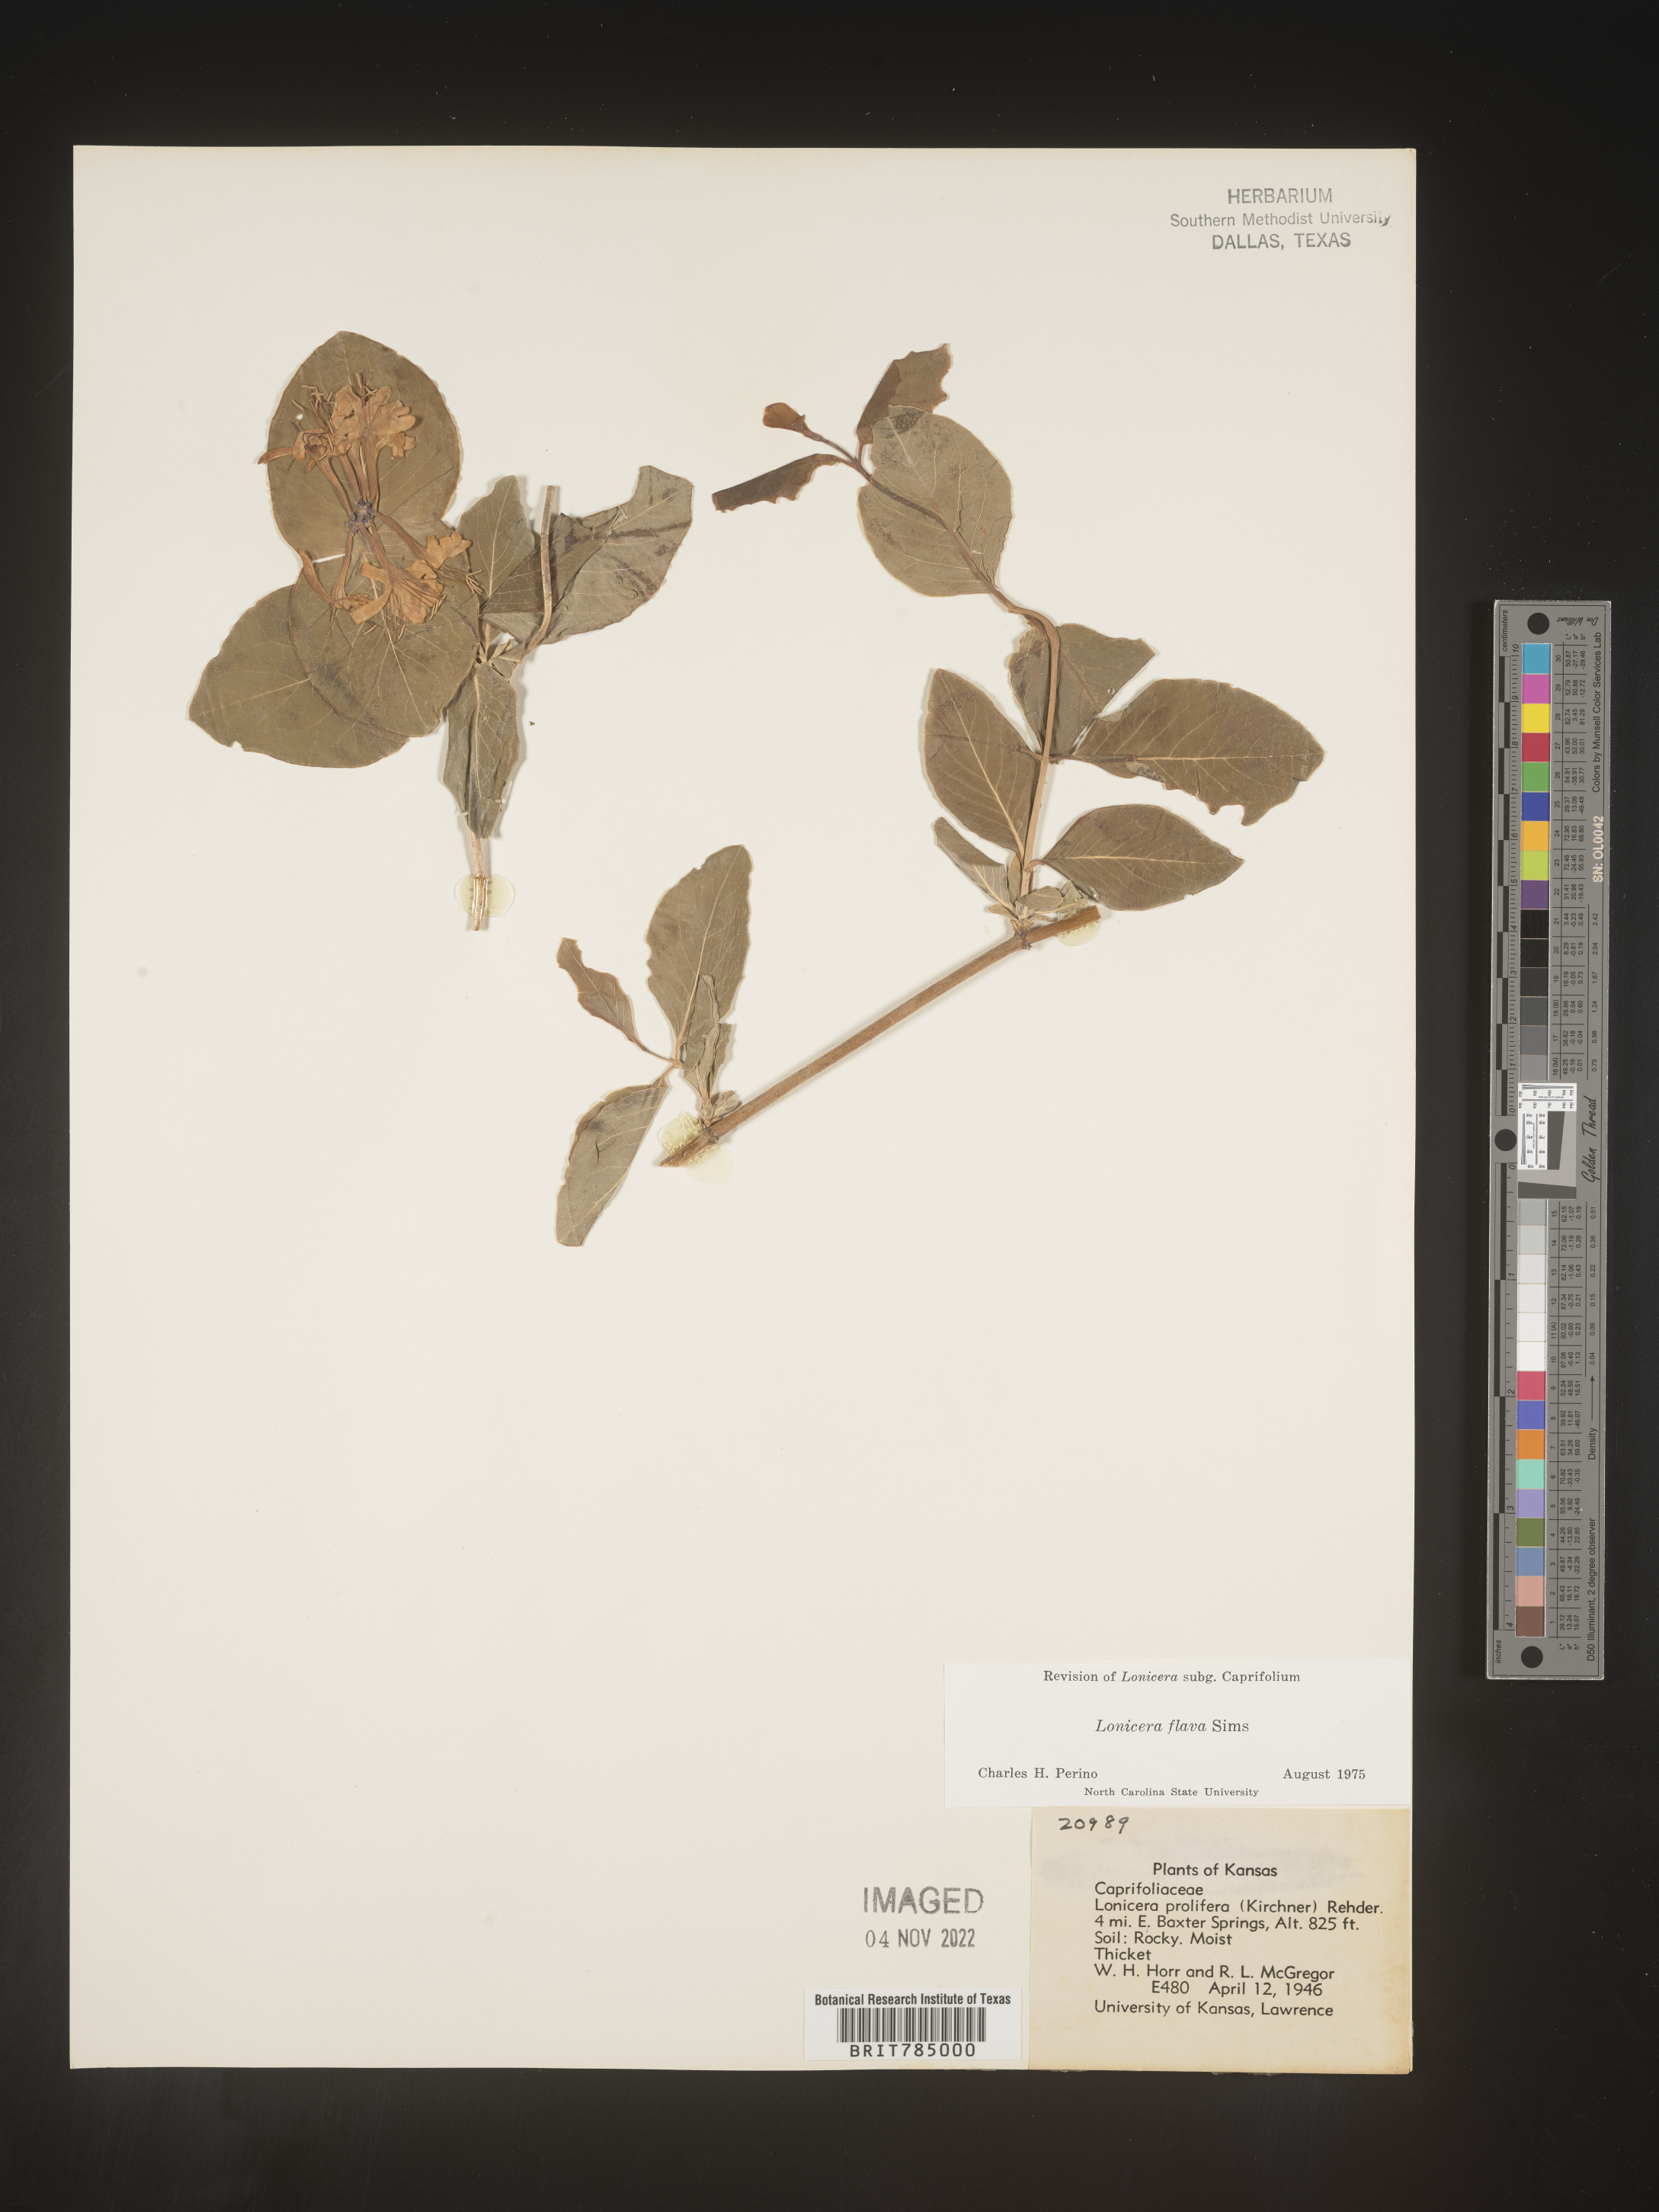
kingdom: Plantae
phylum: Tracheophyta
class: Magnoliopsida
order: Dipsacales
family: Caprifoliaceae
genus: Lonicera
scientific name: Lonicera flava
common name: Yellow honeysuckle
